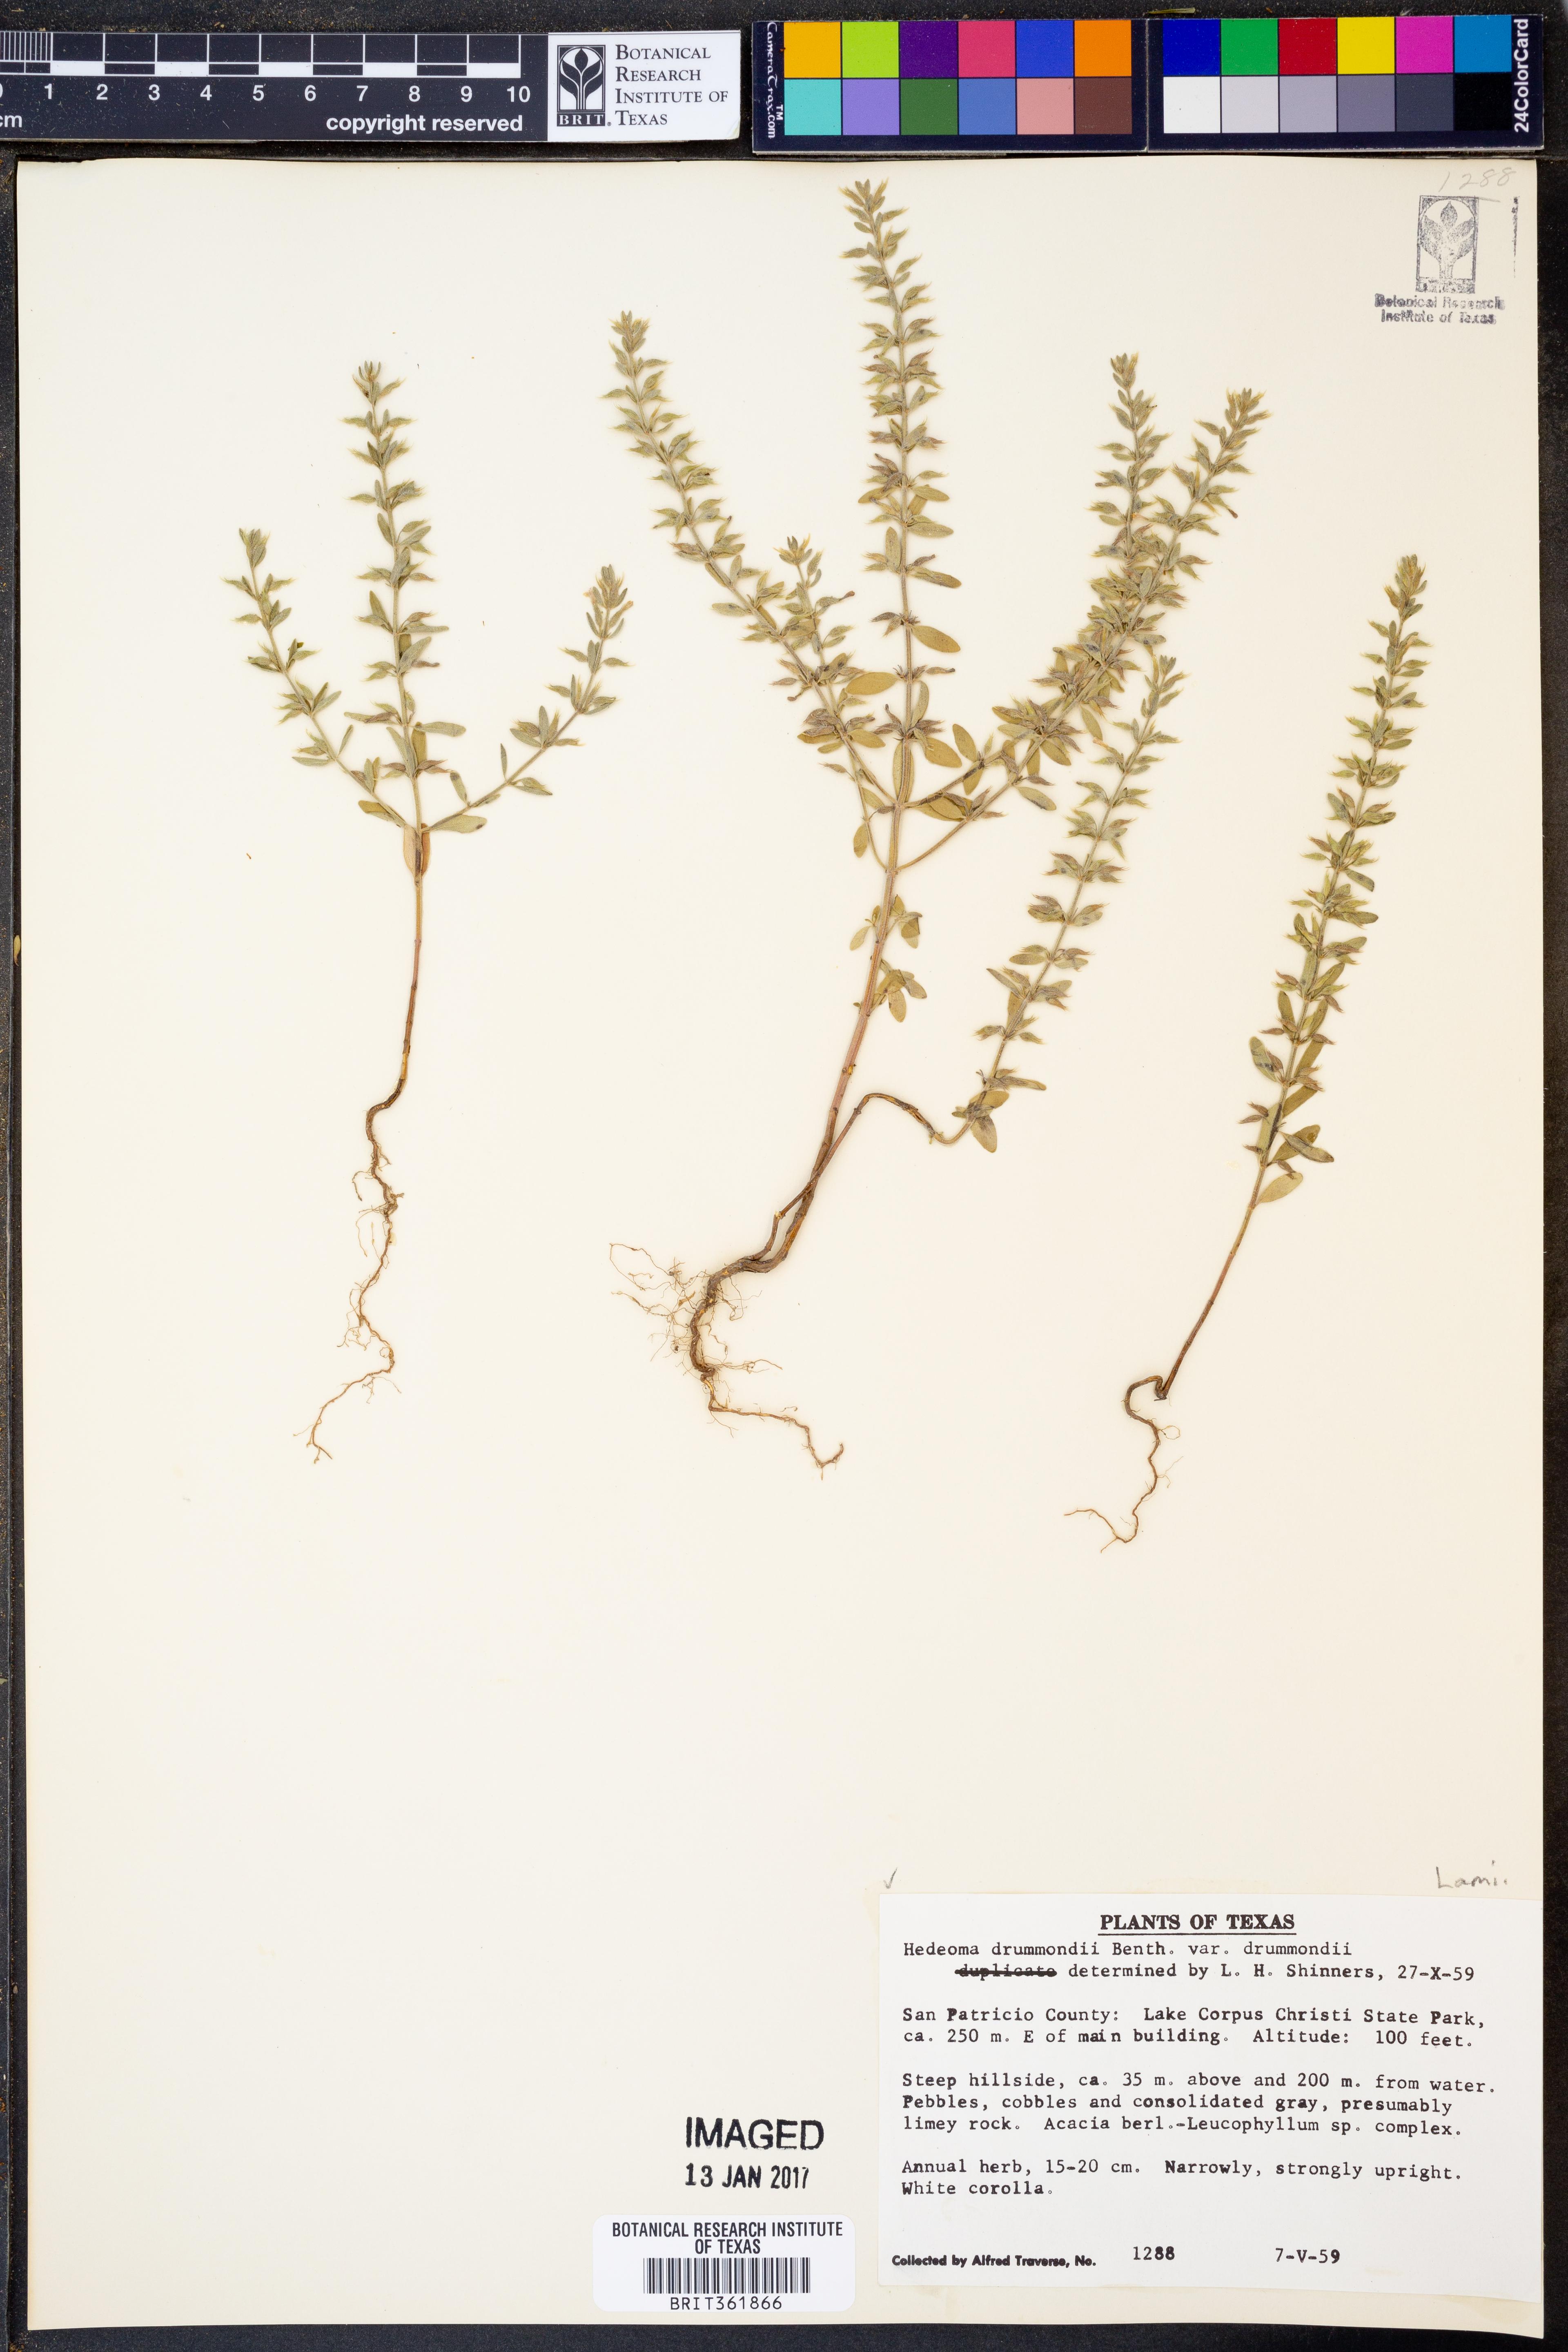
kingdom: Plantae
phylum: Tracheophyta
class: Magnoliopsida
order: Lamiales
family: Lamiaceae
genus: Hedeoma
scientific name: Hedeoma drummondii
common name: New mexico pennyroyal
